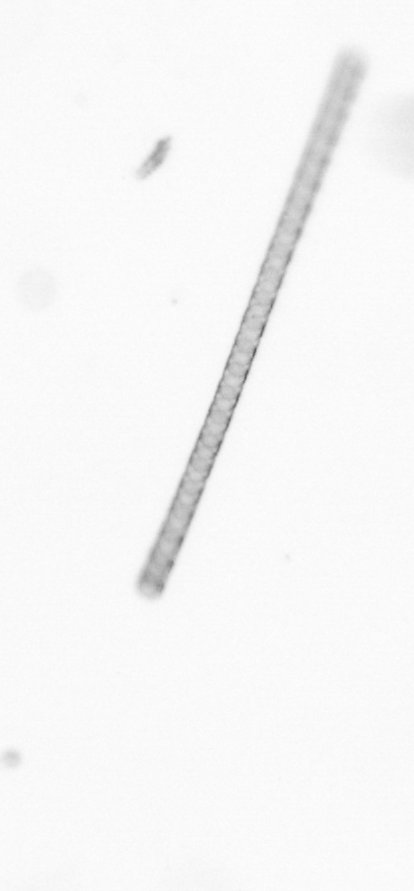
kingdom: Chromista
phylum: Ochrophyta
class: Bacillariophyceae
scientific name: Bacillariophyceae
